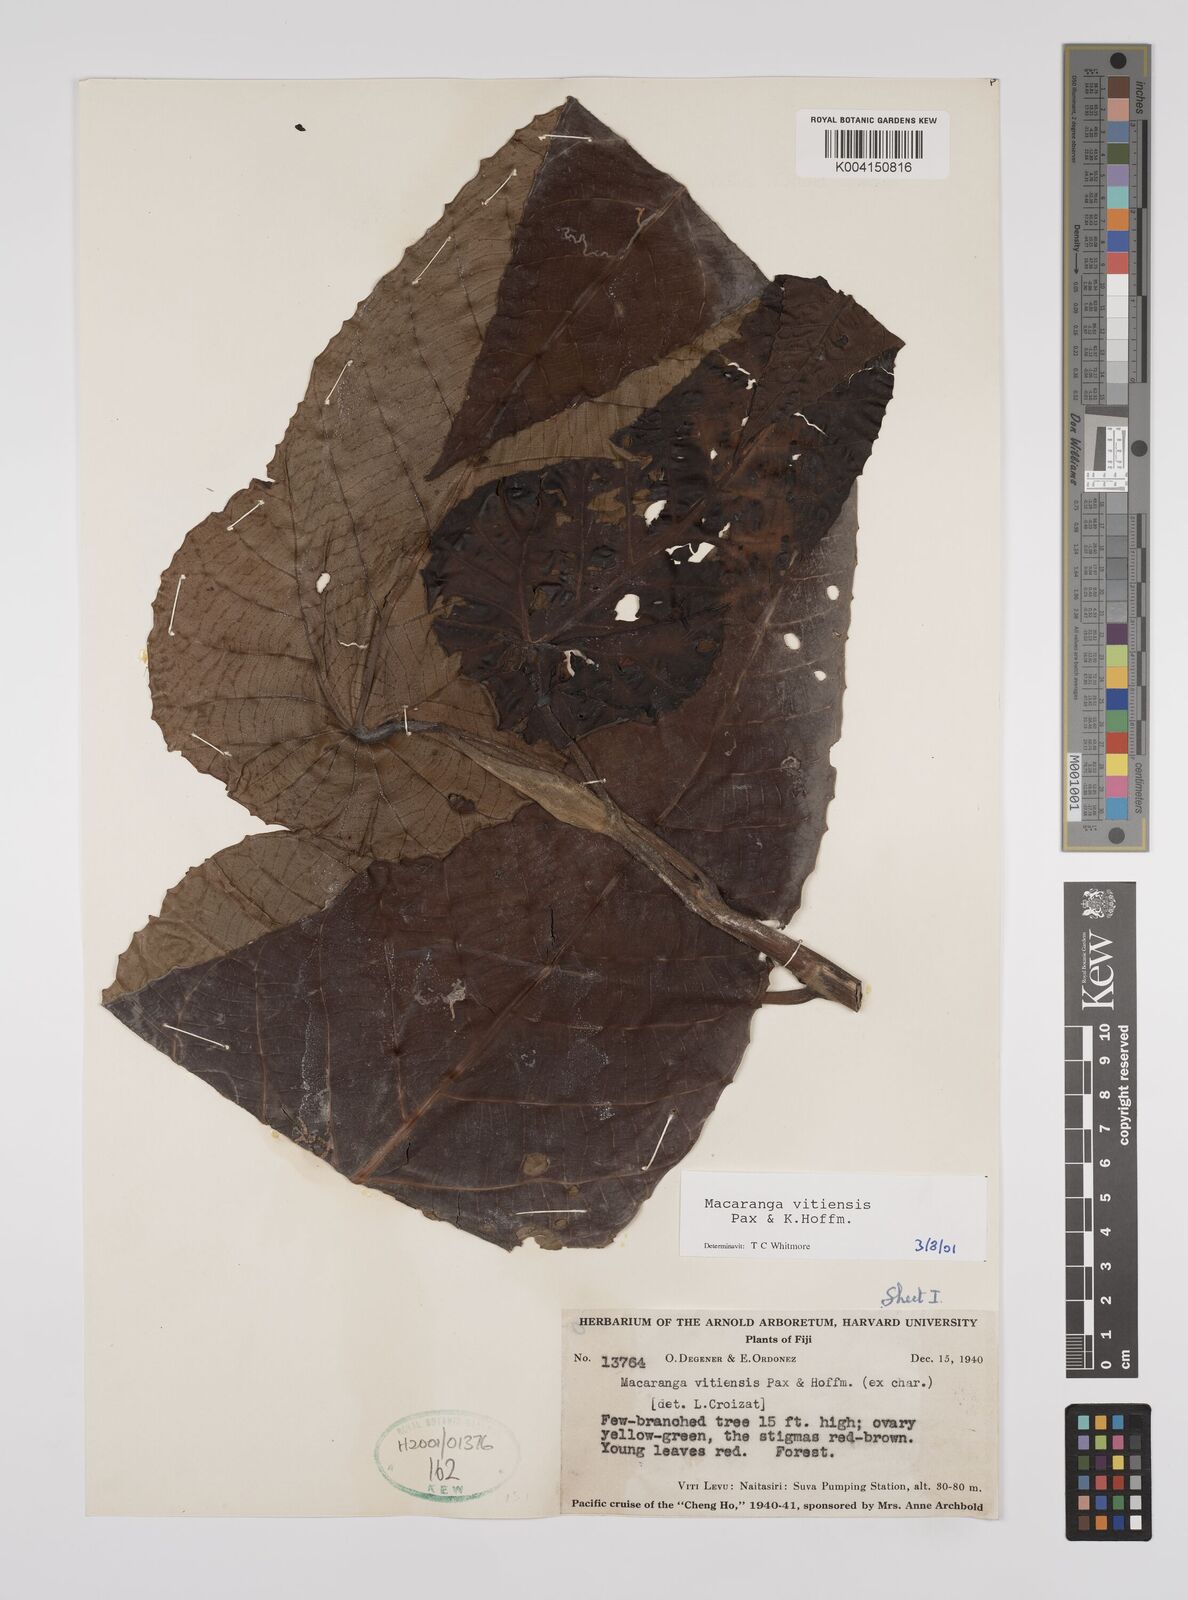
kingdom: Plantae
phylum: Tracheophyta
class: Magnoliopsida
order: Malpighiales
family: Euphorbiaceae
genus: Macaranga
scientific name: Macaranga vitiensis
